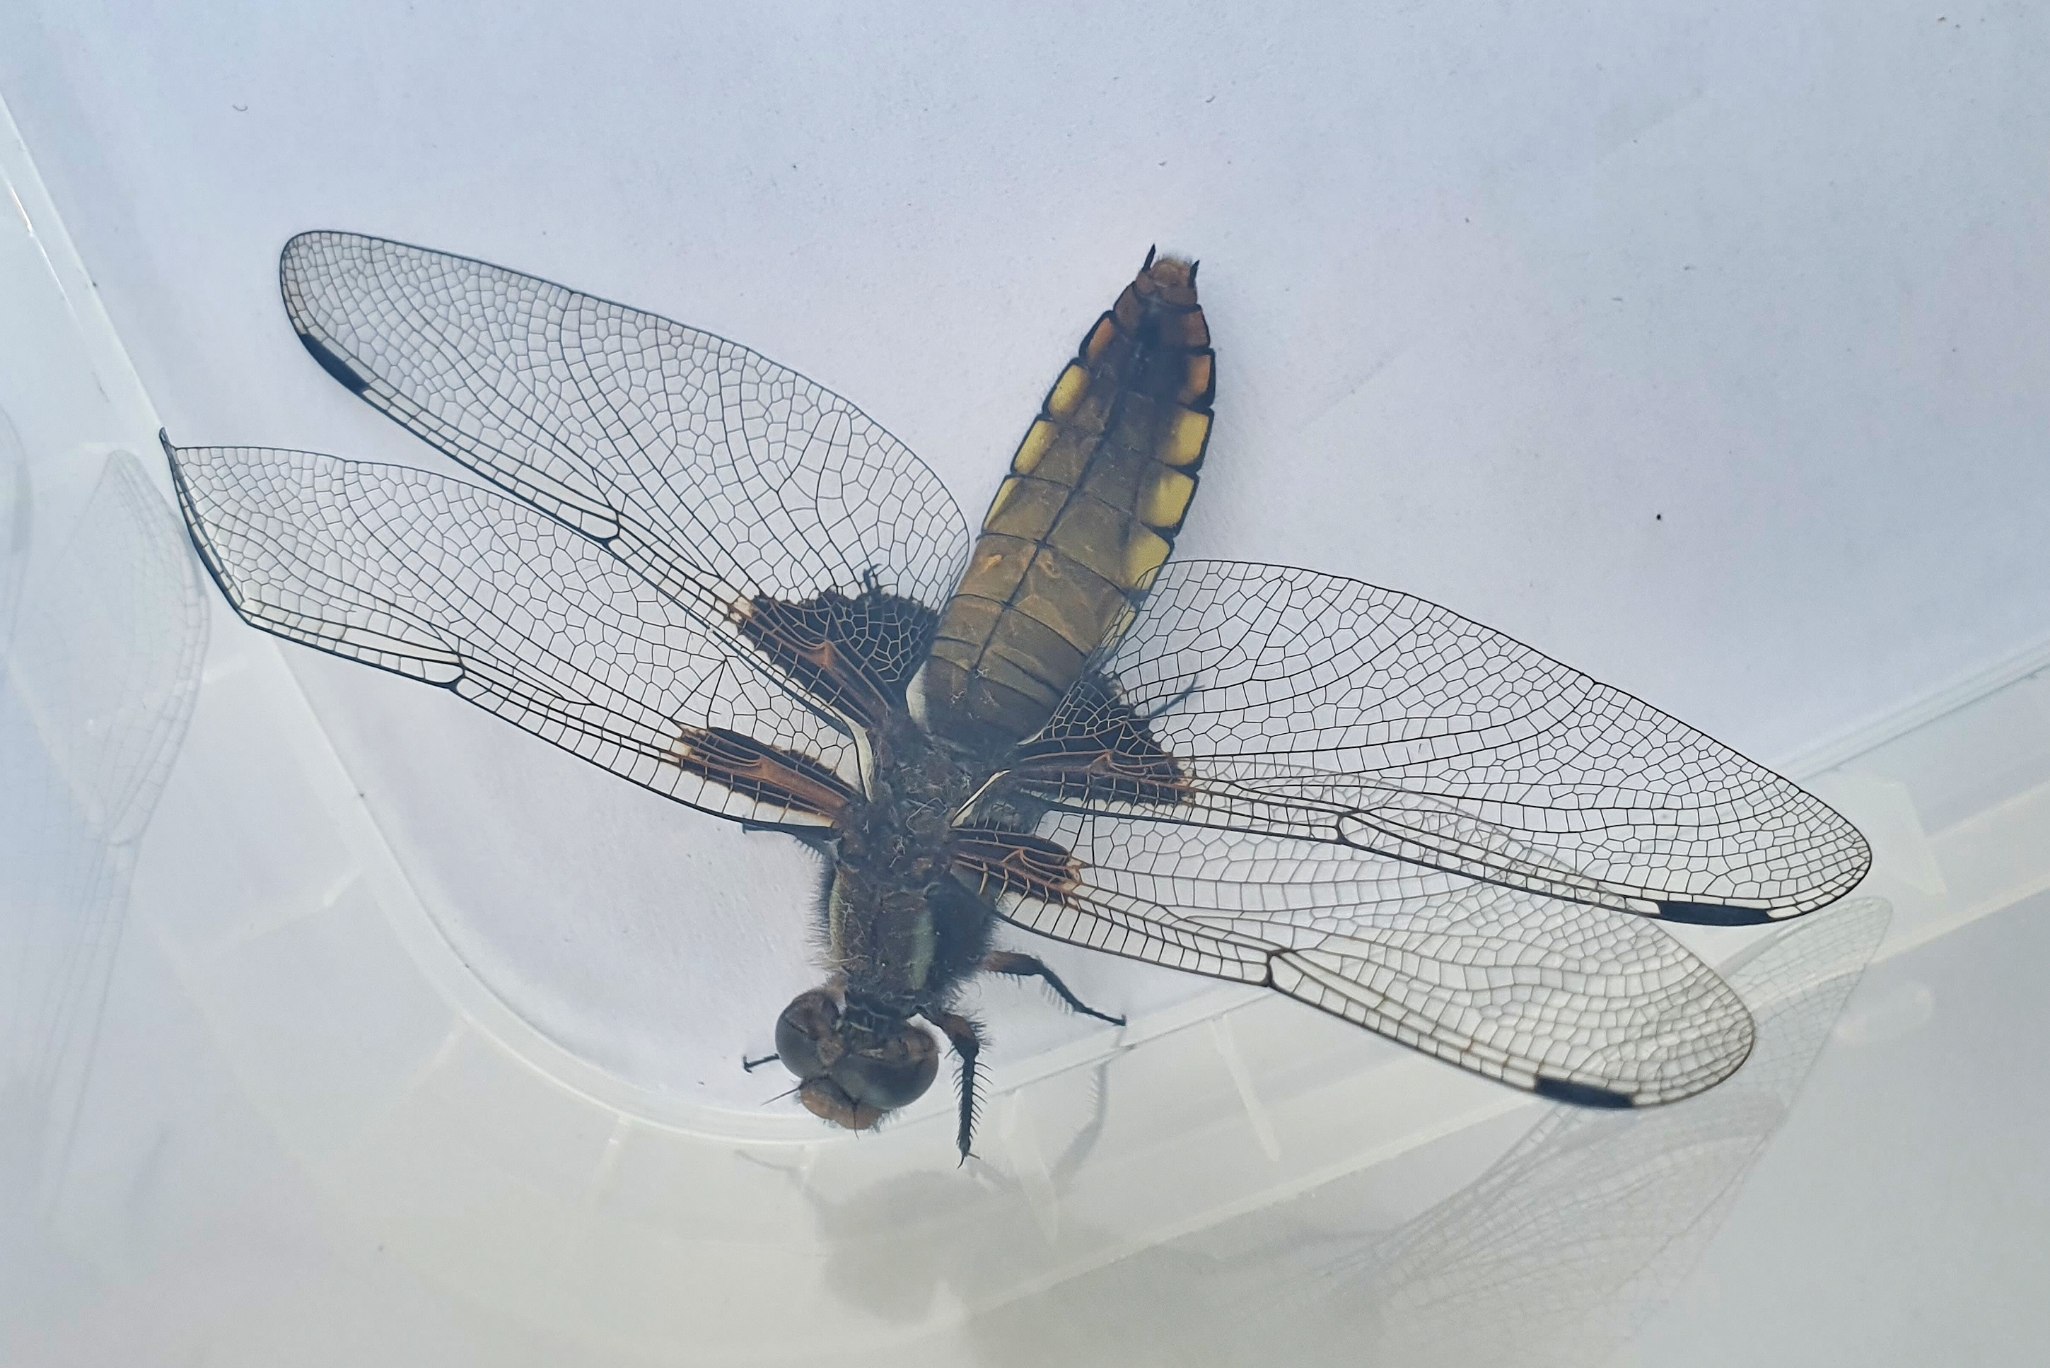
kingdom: Animalia
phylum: Arthropoda
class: Insecta
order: Odonata
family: Libellulidae
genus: Libellula
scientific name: Libellula depressa
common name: Blå libel
